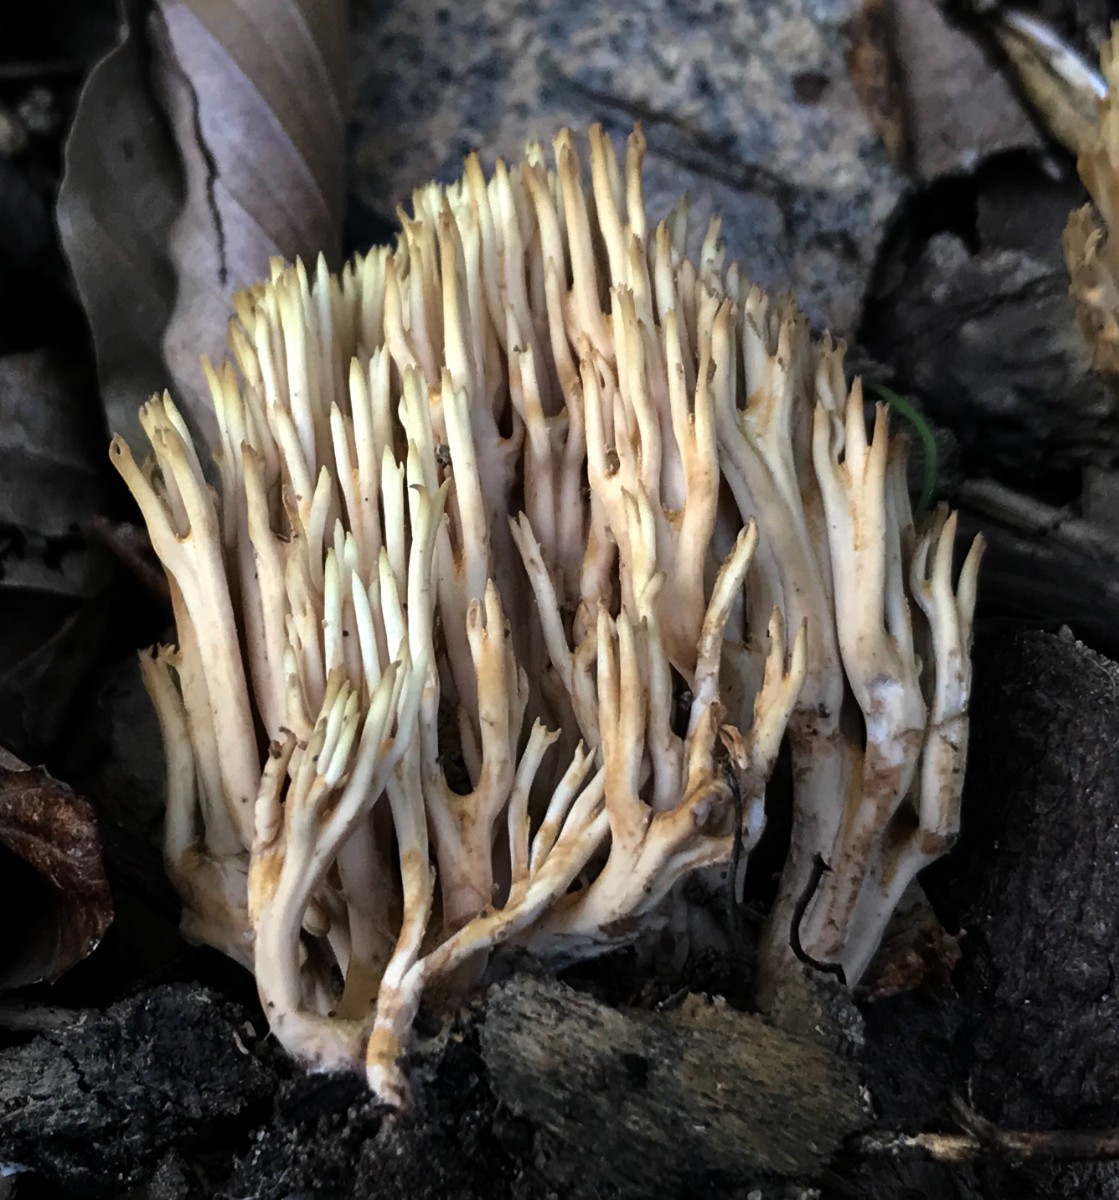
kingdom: Fungi
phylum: Basidiomycota
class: Agaricomycetes
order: Gomphales
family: Gomphaceae
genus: Ramaria
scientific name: Ramaria stricta
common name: rank koralsvamp
